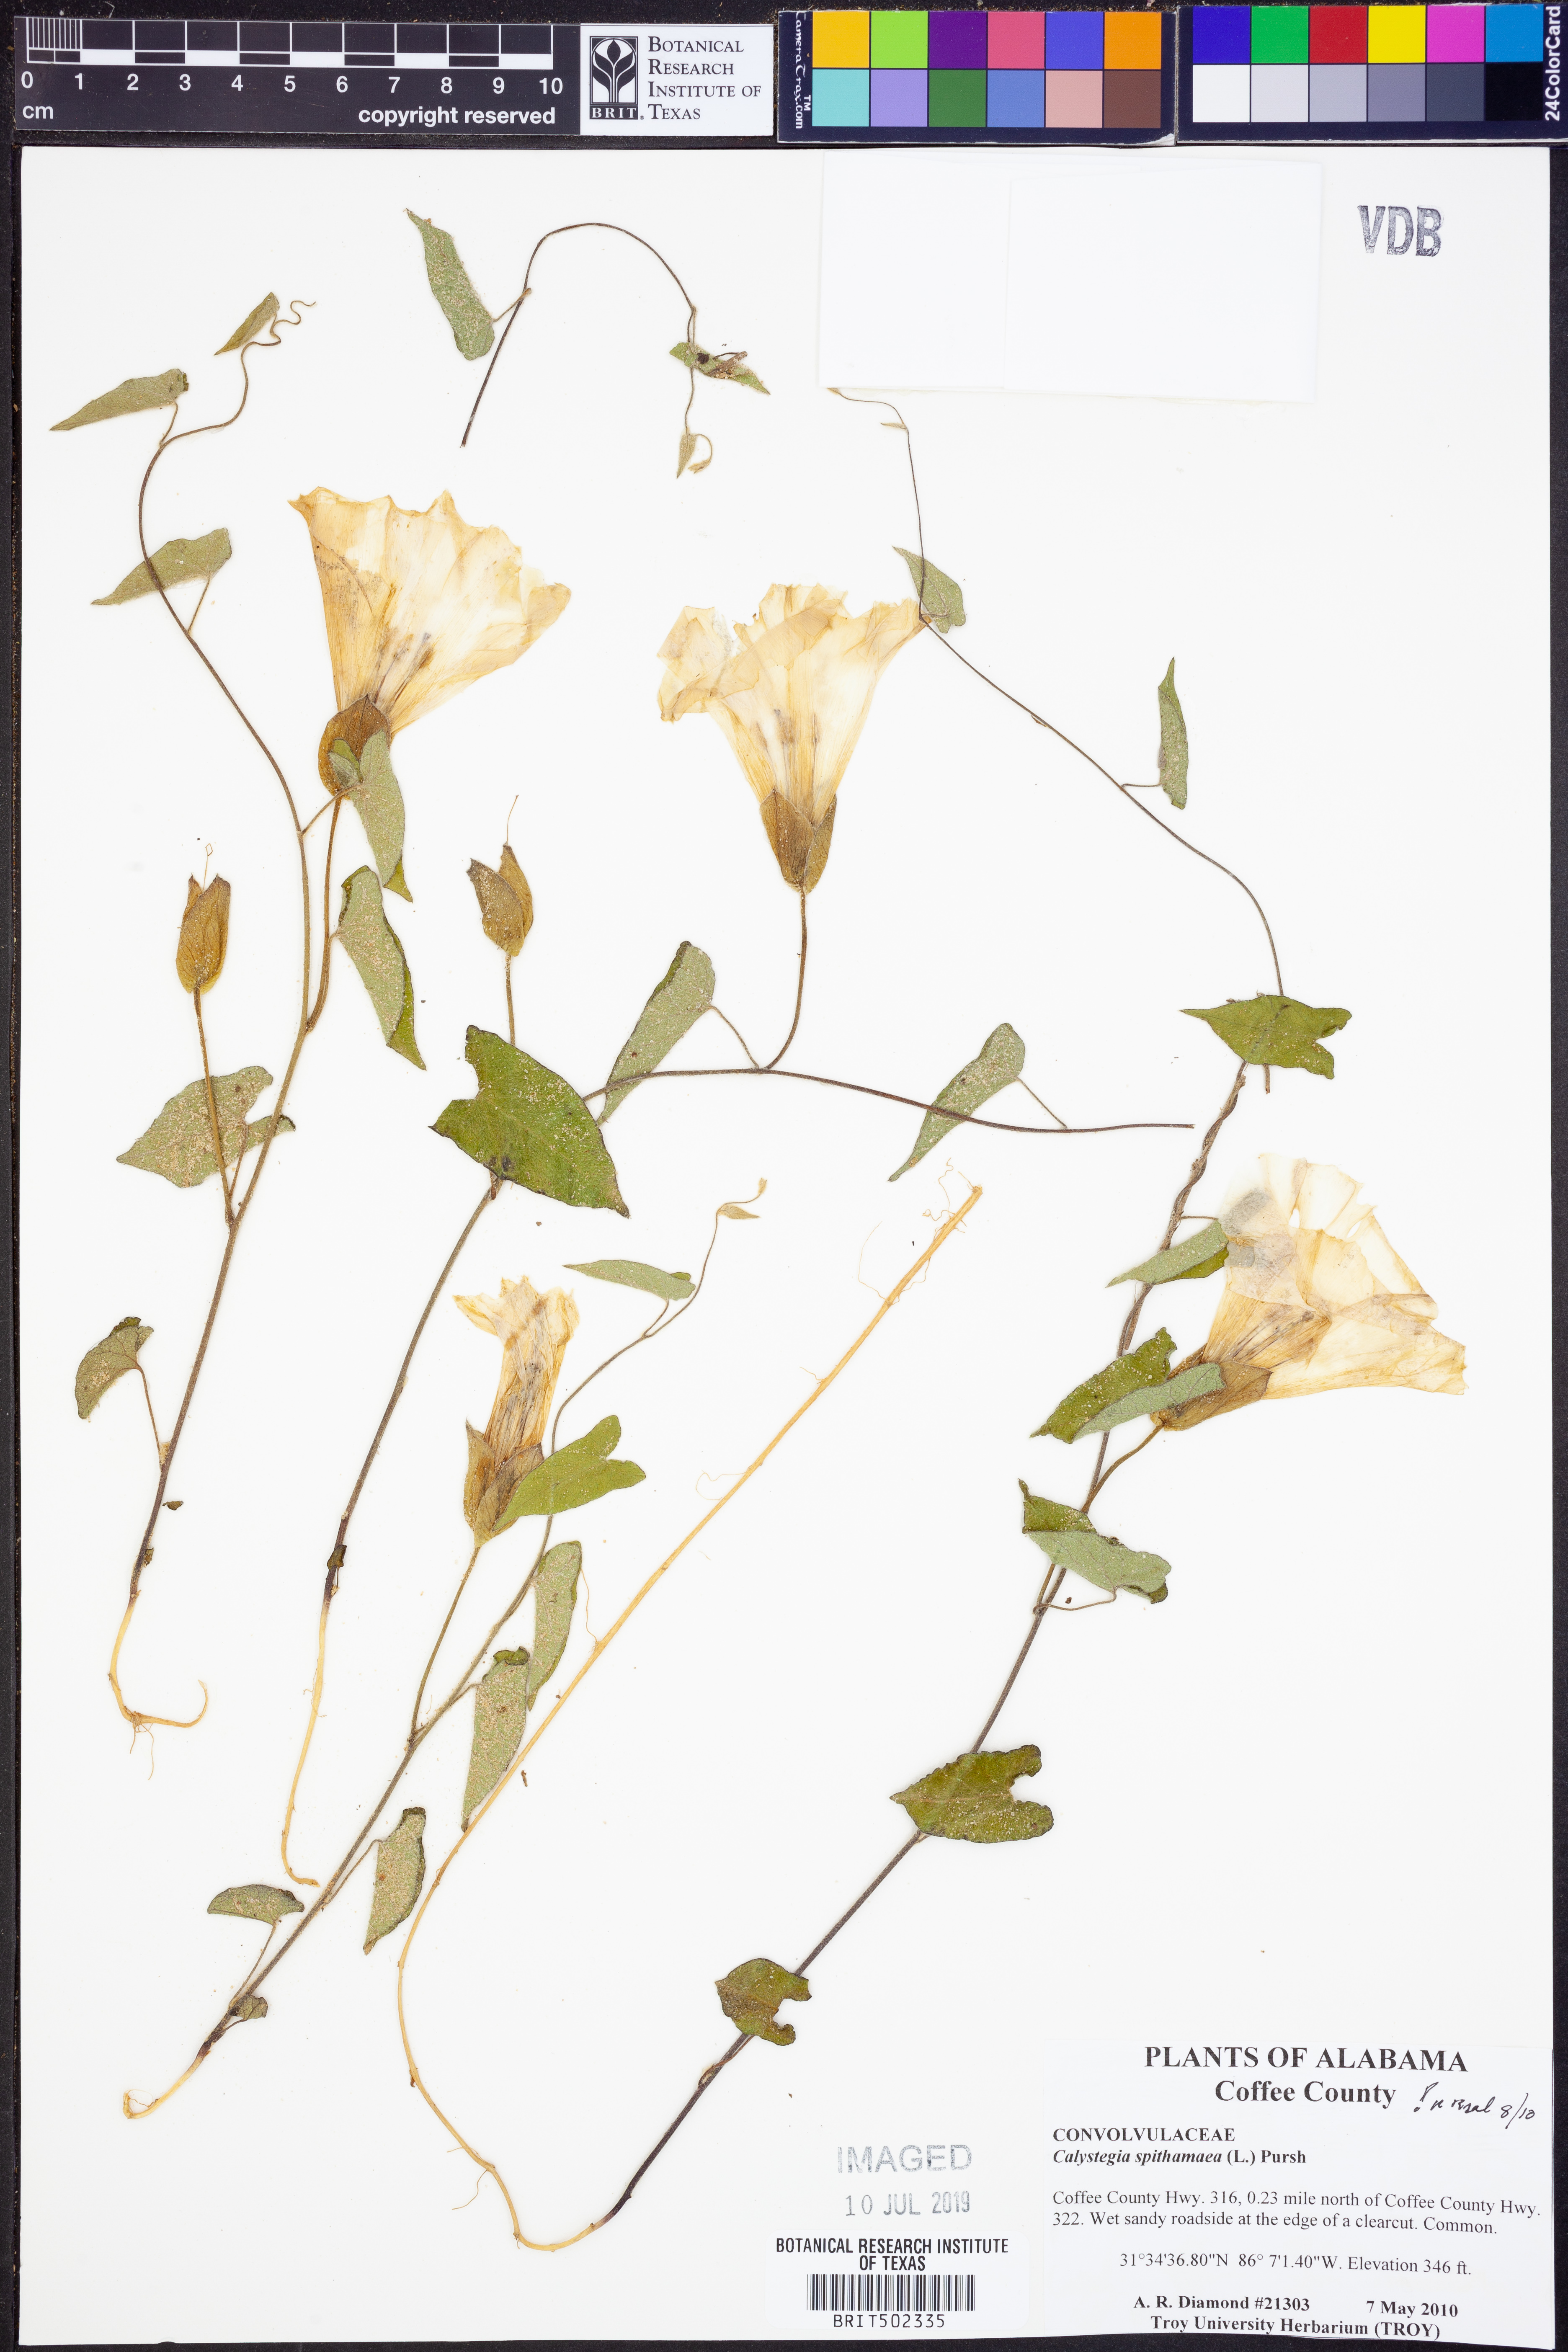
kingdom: Plantae
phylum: Tracheophyta
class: Magnoliopsida
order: Solanales
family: Convolvulaceae
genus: Calystegia
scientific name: Calystegia spithamaea
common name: Dwarf bindweed
